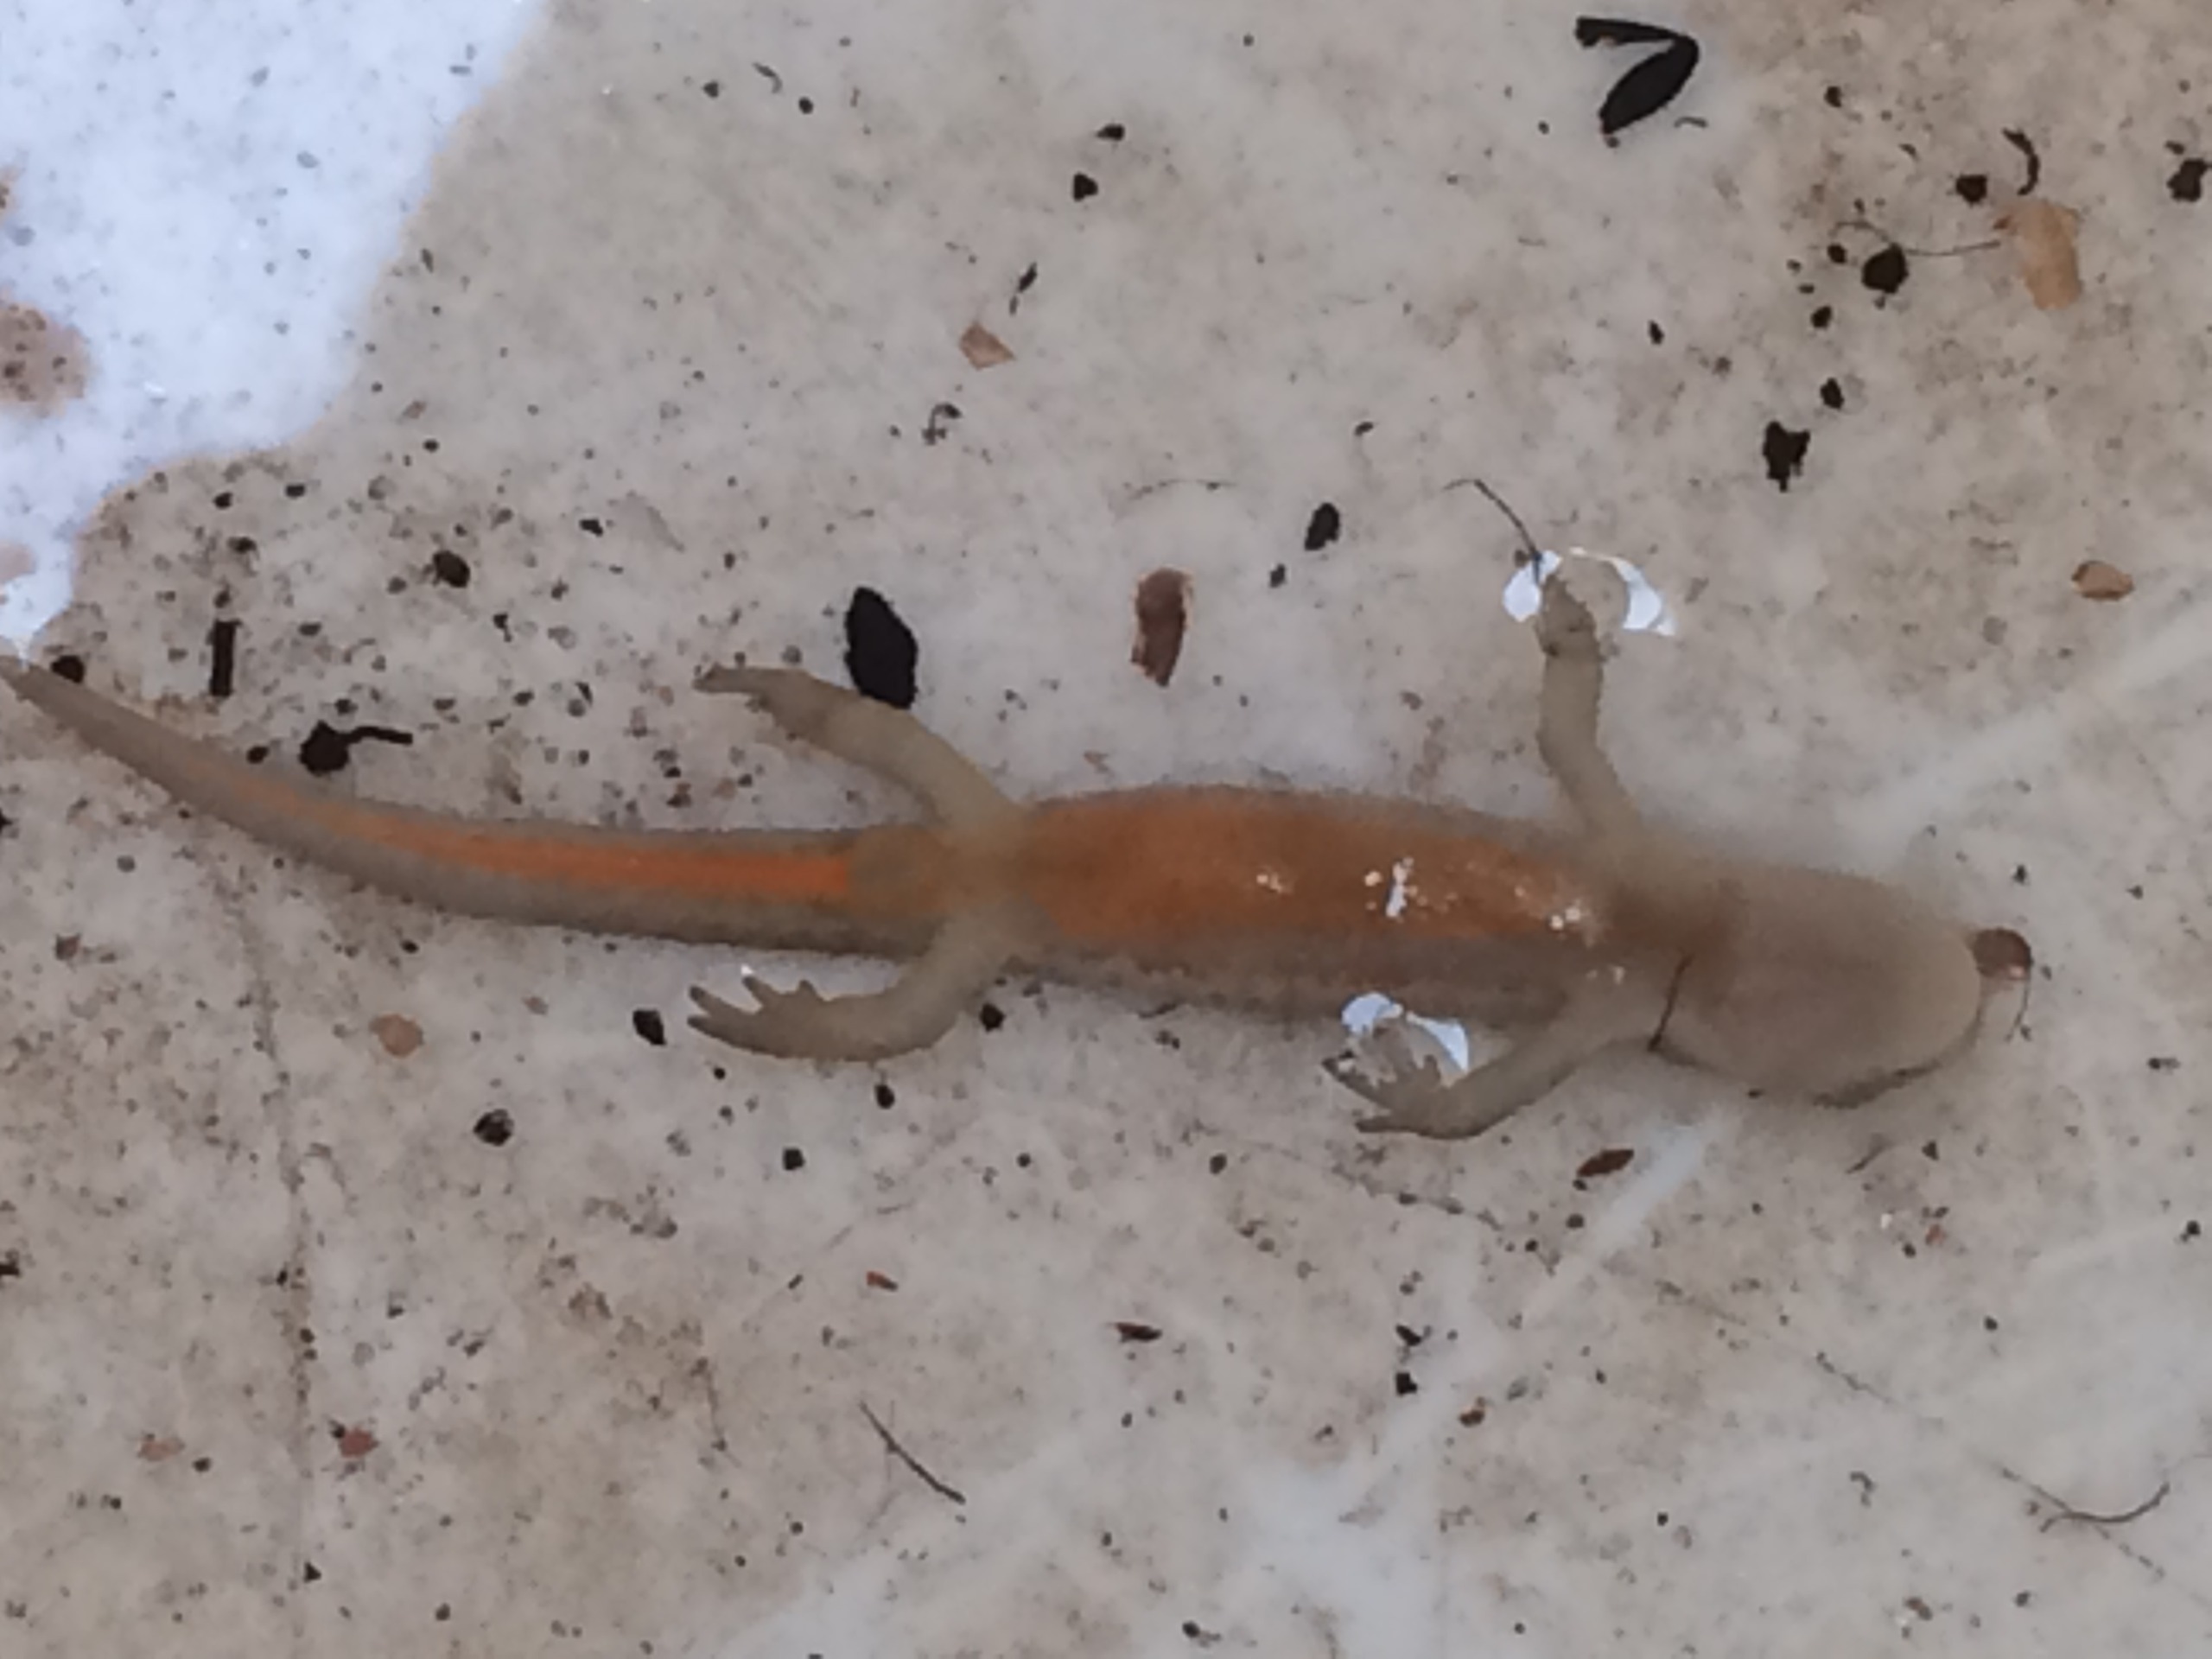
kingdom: Animalia
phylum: Chordata
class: Amphibia
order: Caudata
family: Salamandridae
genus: Lissotriton
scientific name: Lissotriton vulgaris
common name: Lille vandsalamander
